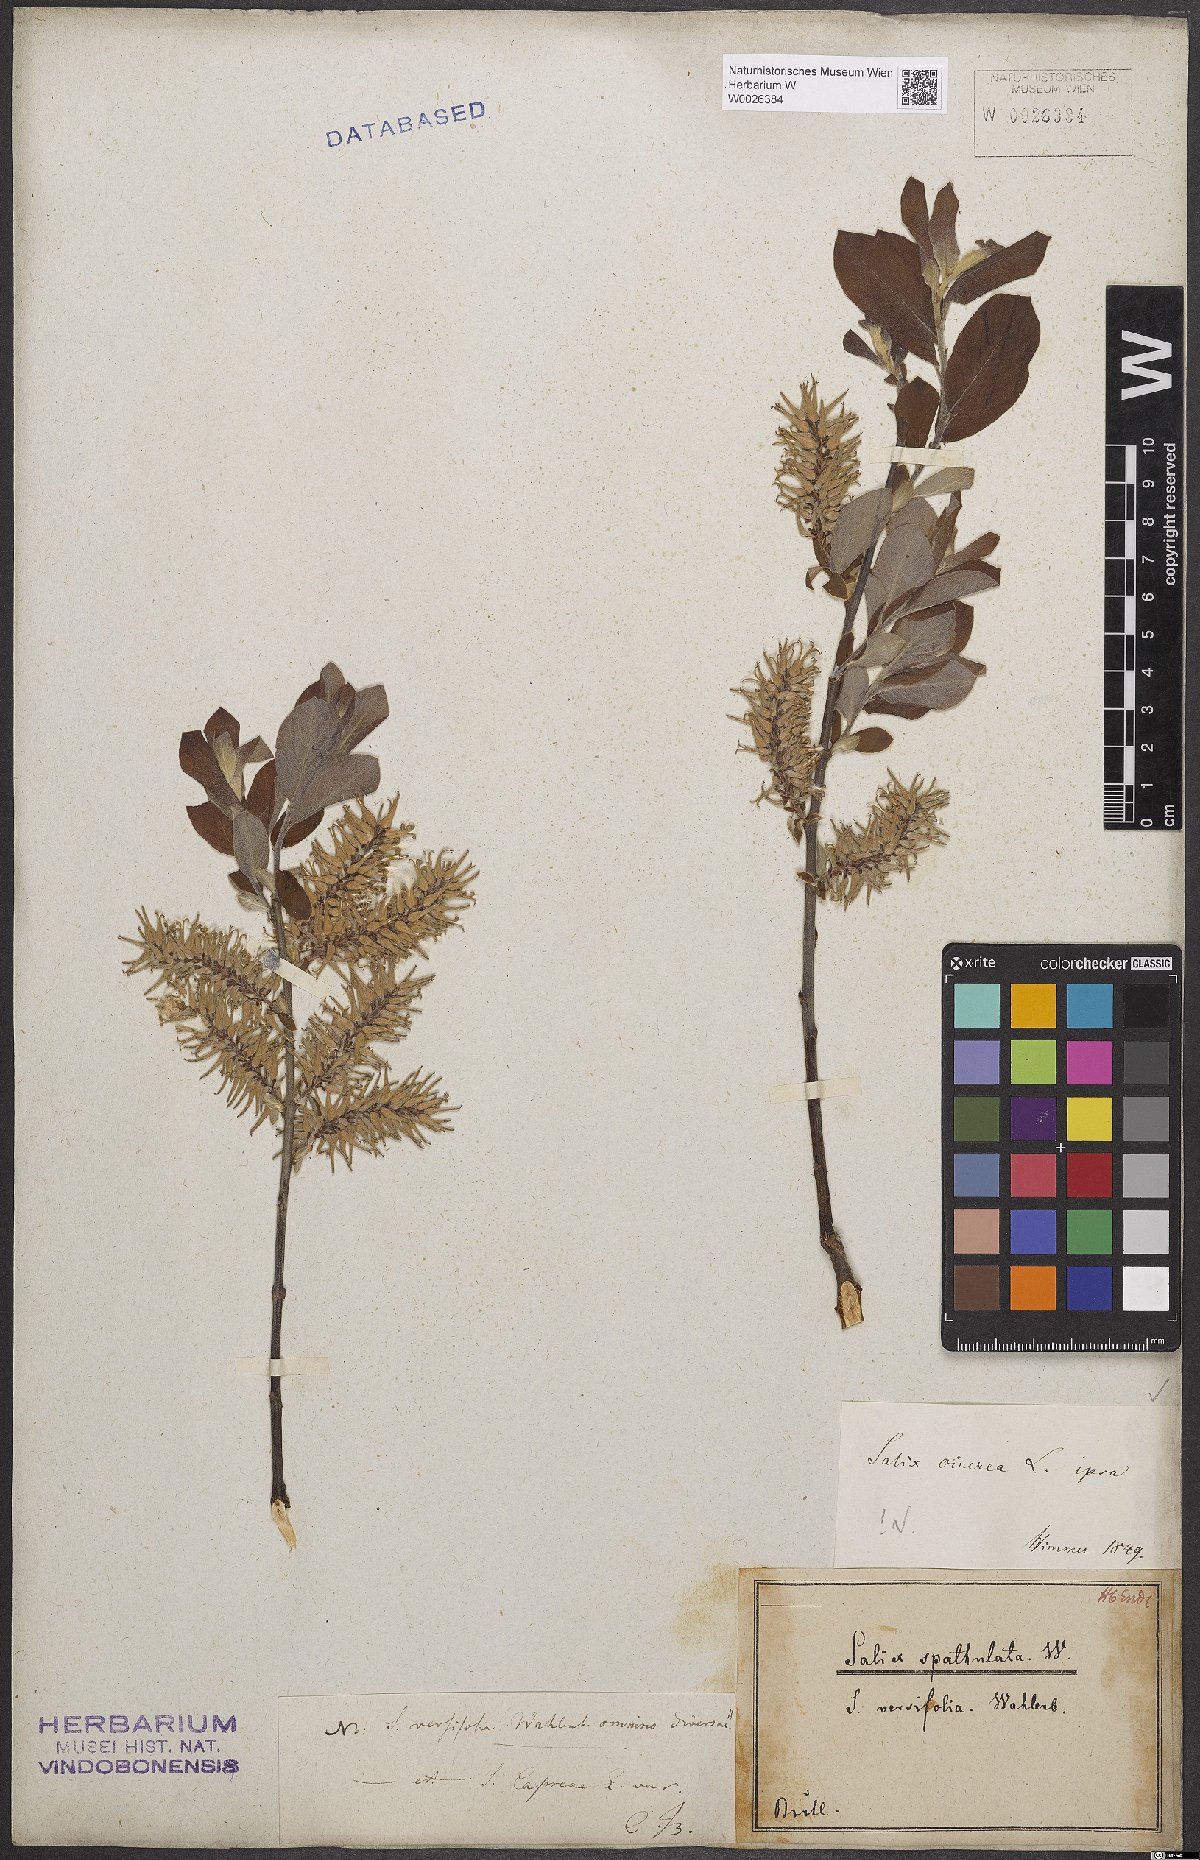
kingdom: Plantae
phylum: Tracheophyta
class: Magnoliopsida
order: Malpighiales
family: Salicaceae
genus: Salix
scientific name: Salix cinerea
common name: Common sallow
